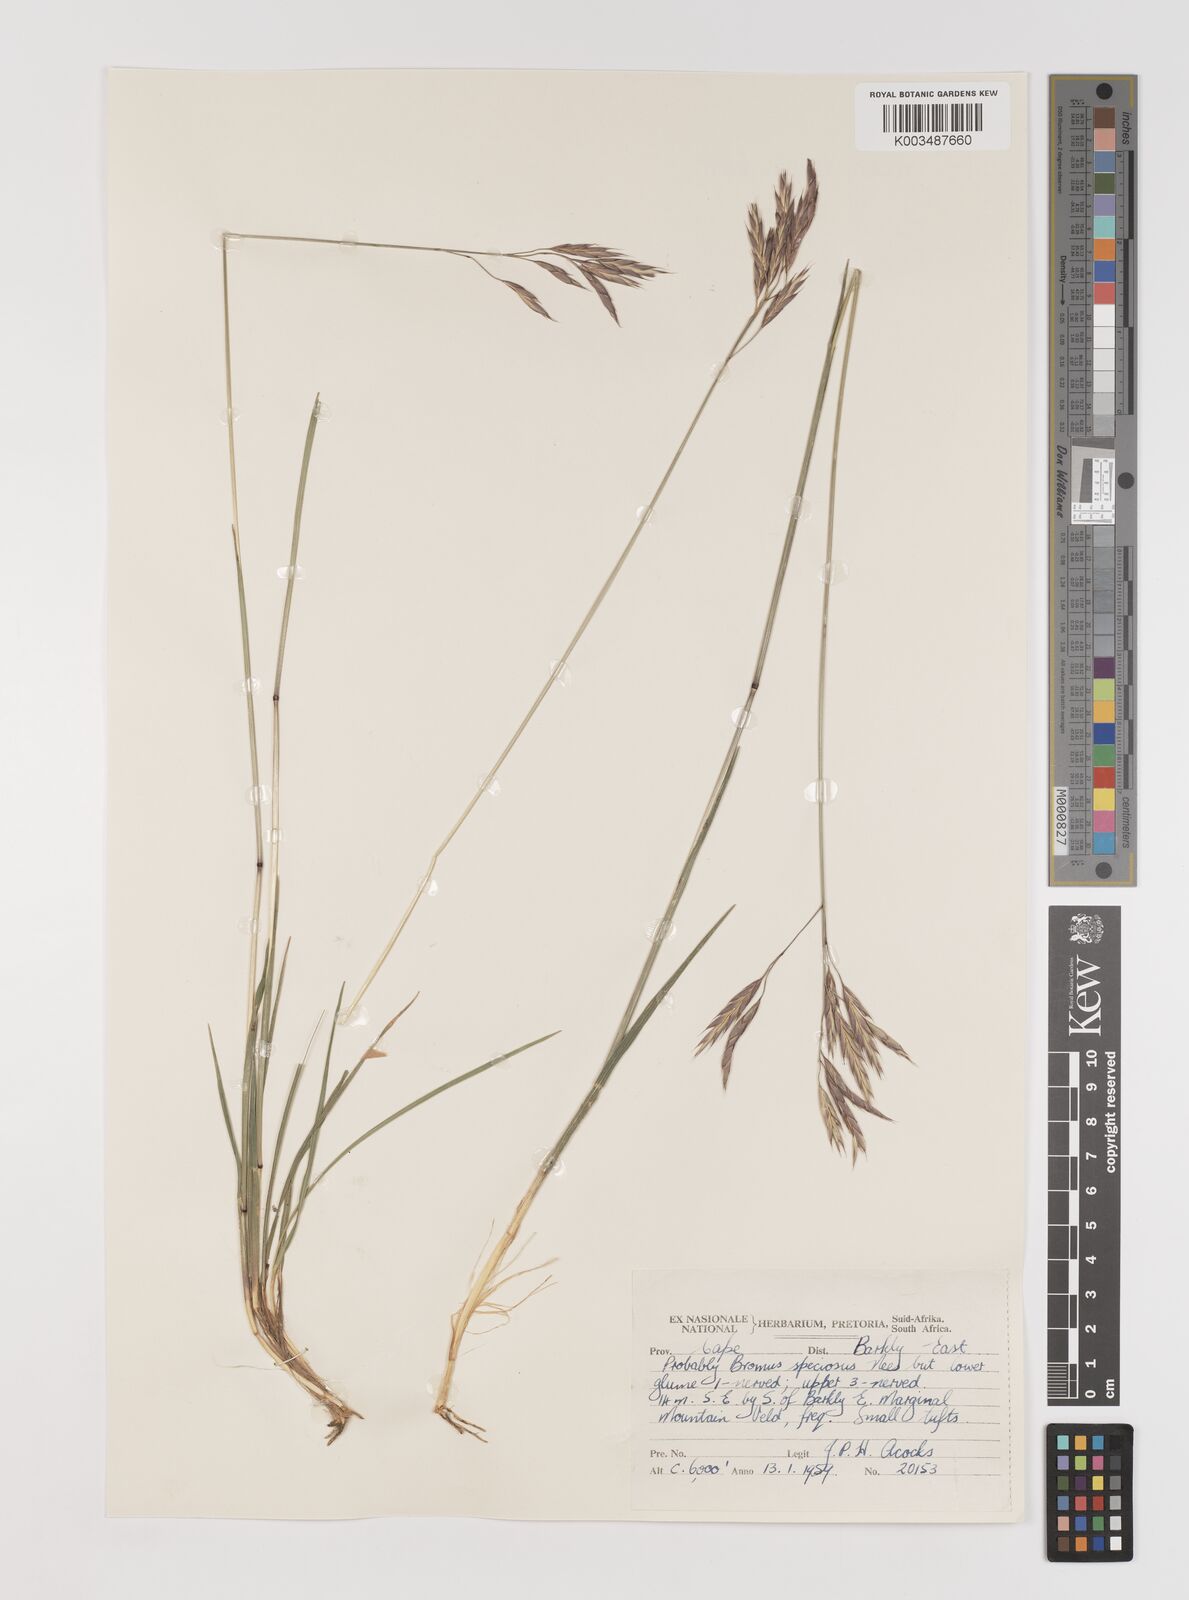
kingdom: Plantae
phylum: Tracheophyta
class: Liliopsida
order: Poales
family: Poaceae
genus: Bromus
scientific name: Bromus firmior
